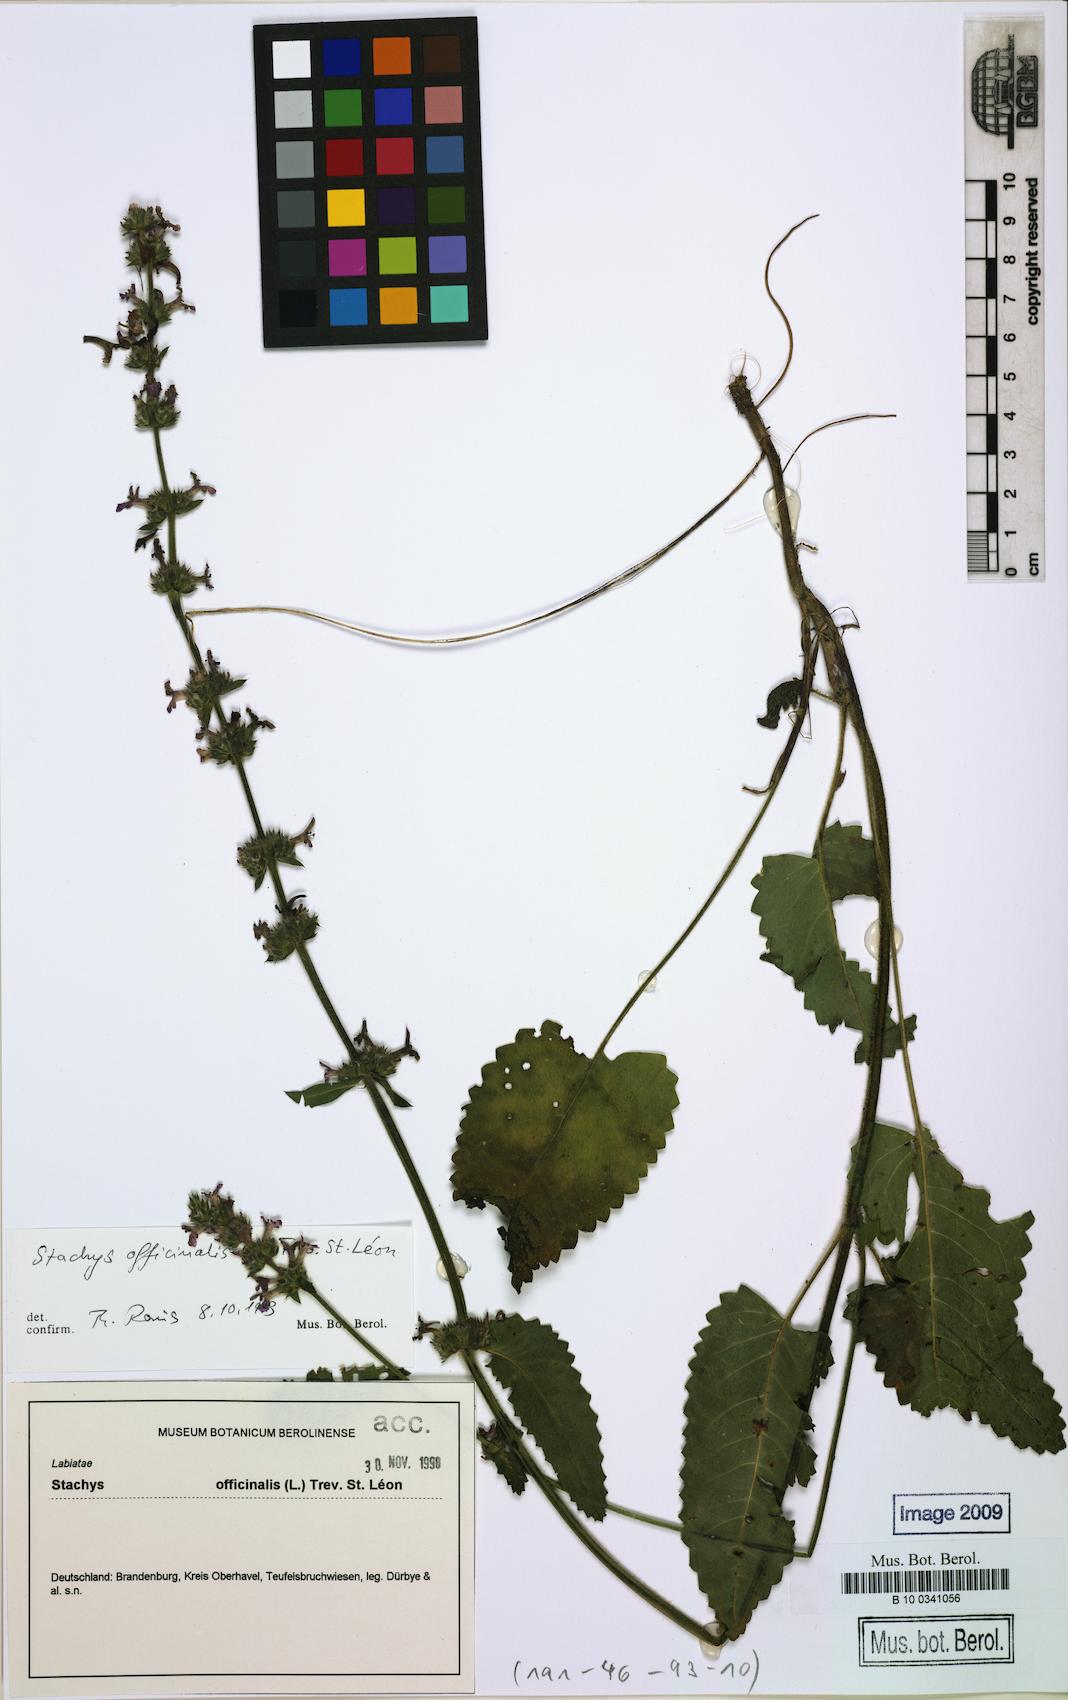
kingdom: Plantae
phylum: Tracheophyta
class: Magnoliopsida
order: Lamiales
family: Lamiaceae
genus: Betonica
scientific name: Betonica officinalis
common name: Bishop's-wort
